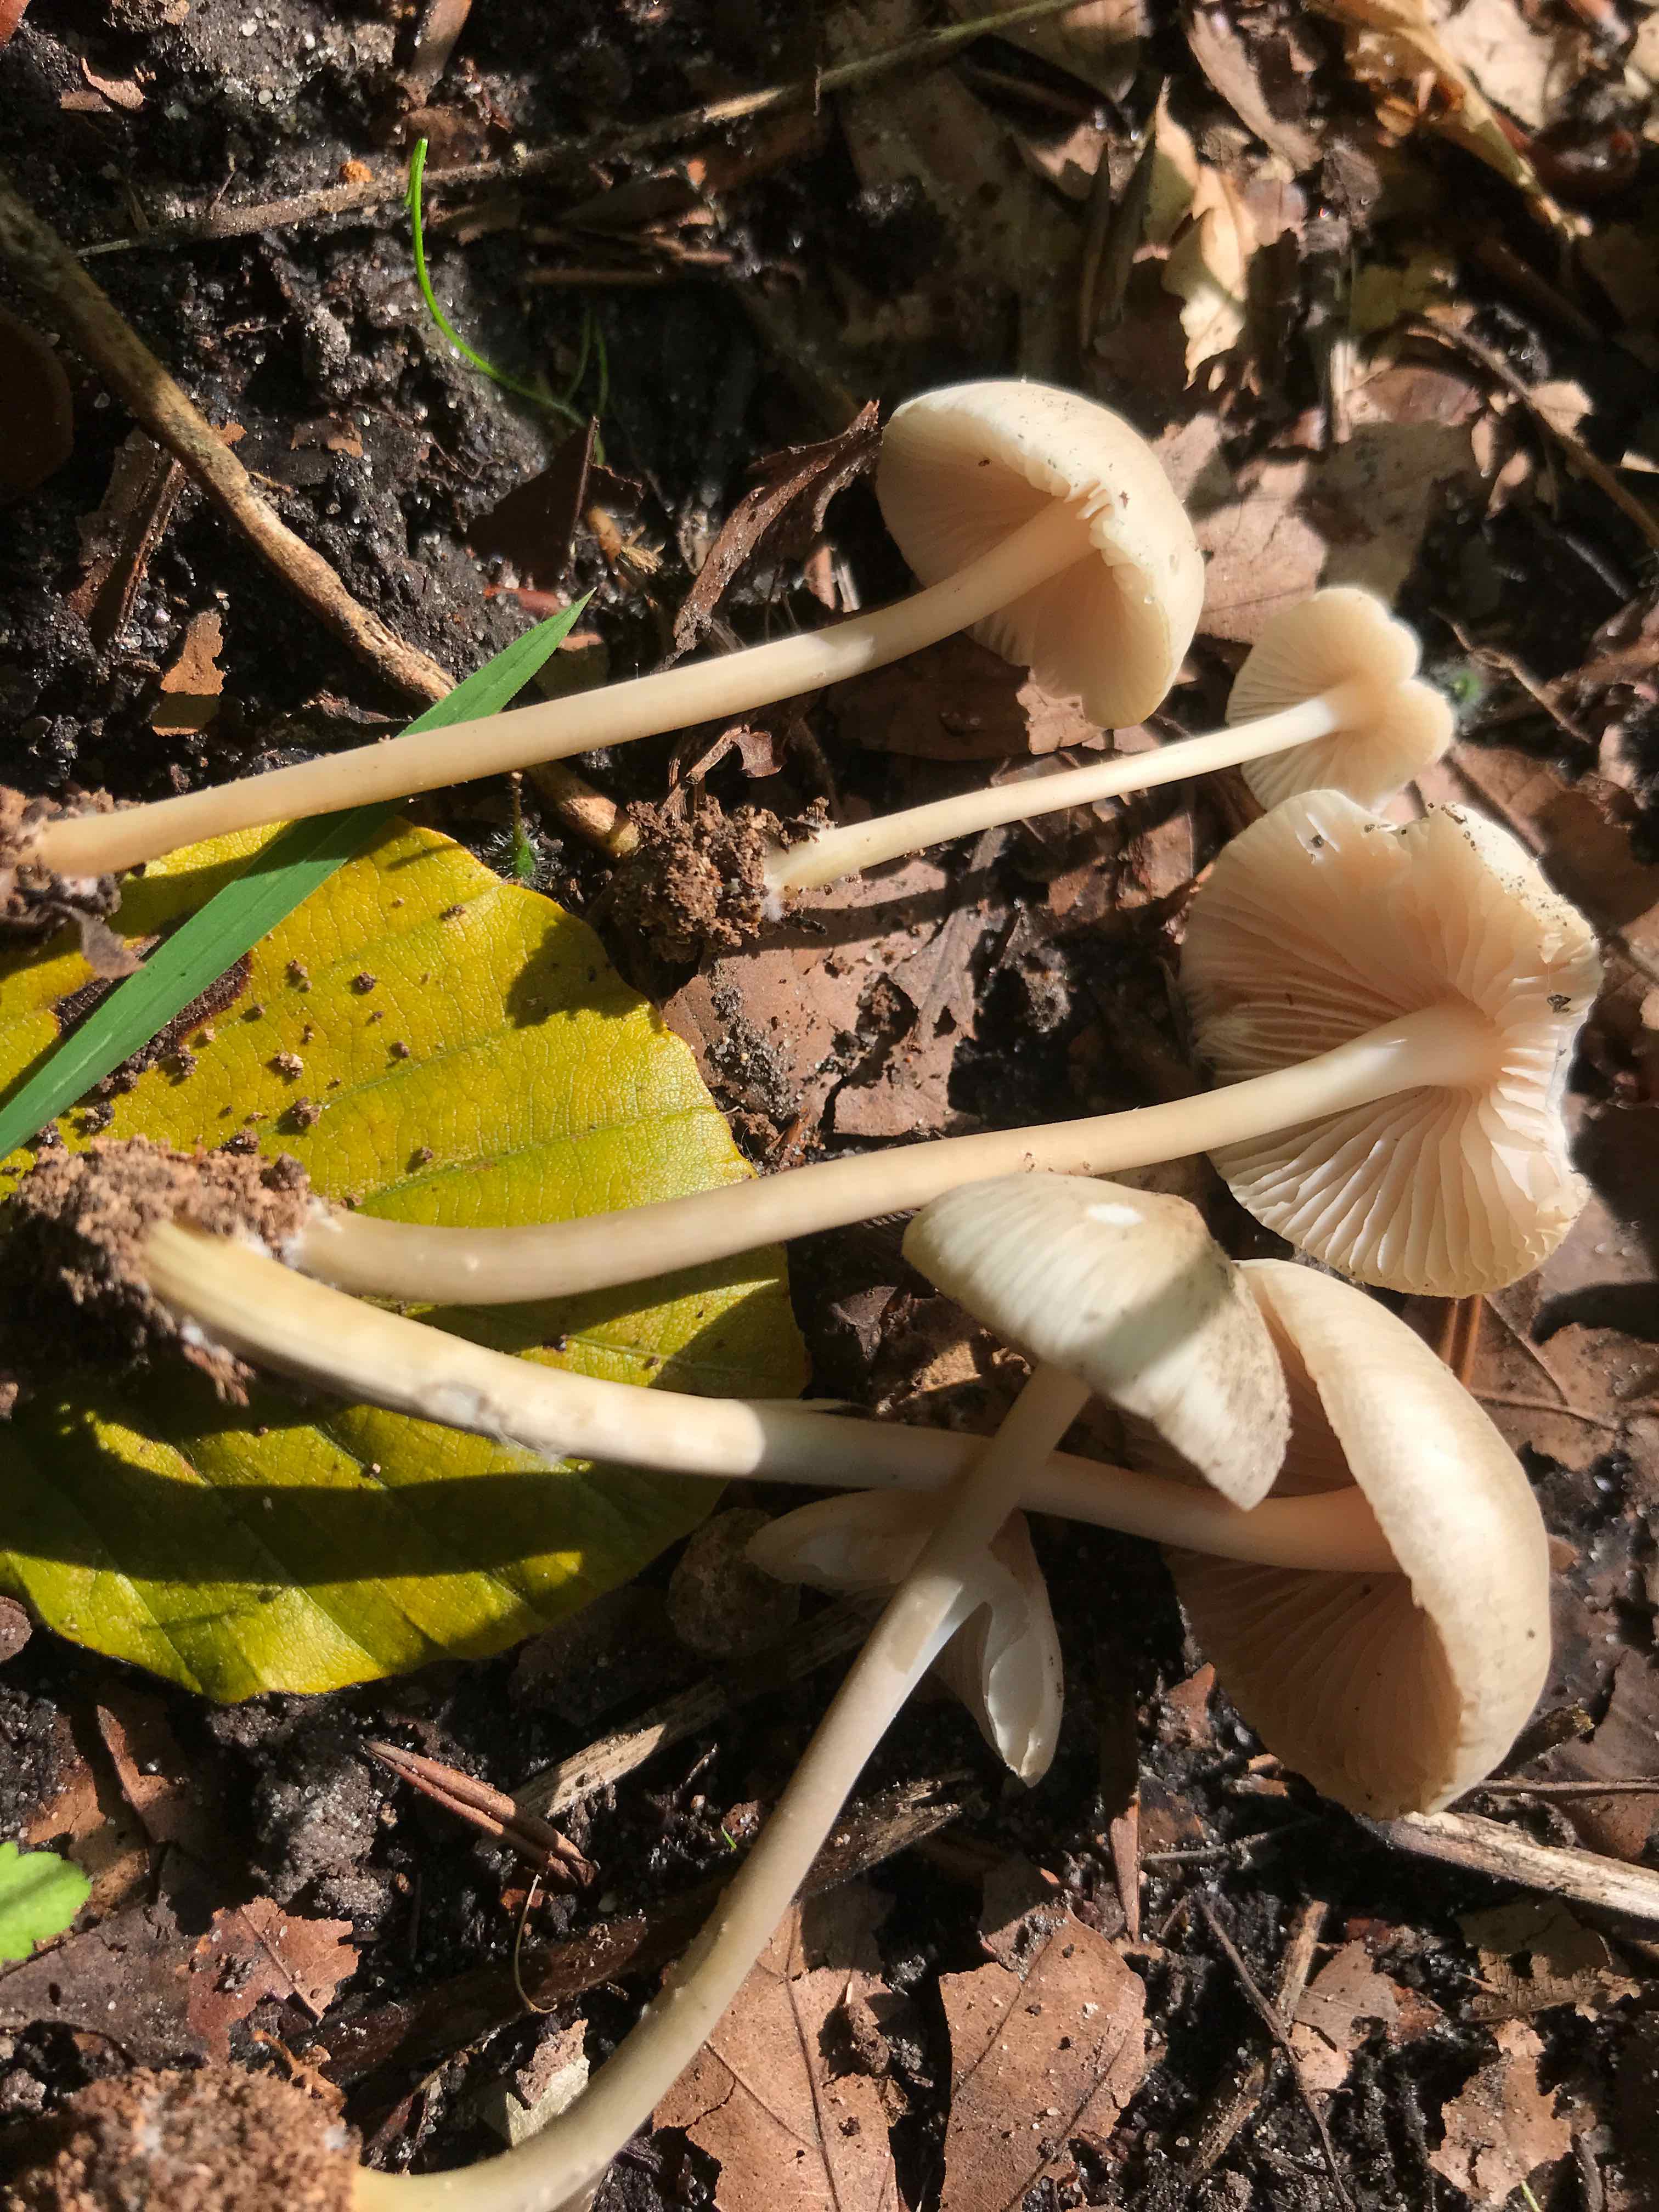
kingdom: Fungi
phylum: Basidiomycota
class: Agaricomycetes
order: Agaricales
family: Mycenaceae
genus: Mycena
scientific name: Mycena galericulata
